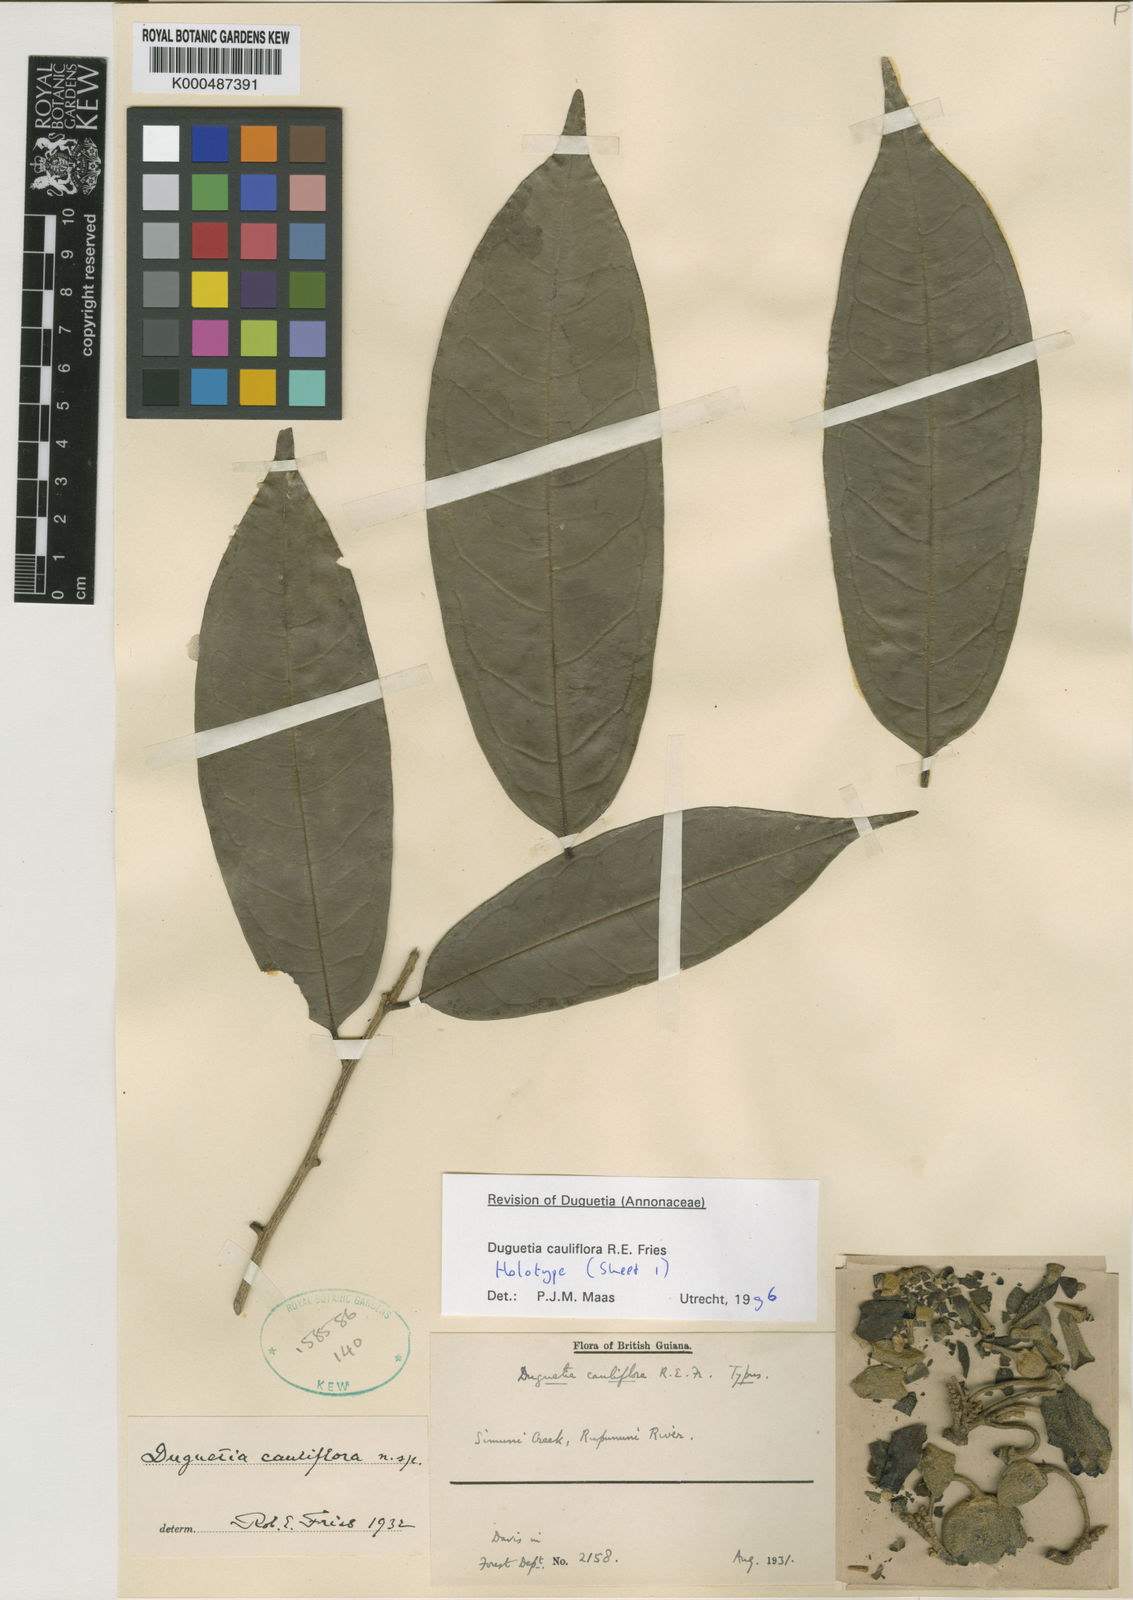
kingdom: Plantae
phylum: Tracheophyta
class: Magnoliopsida
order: Magnoliales
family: Annonaceae
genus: Duguetia
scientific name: Duguetia cauliflora
